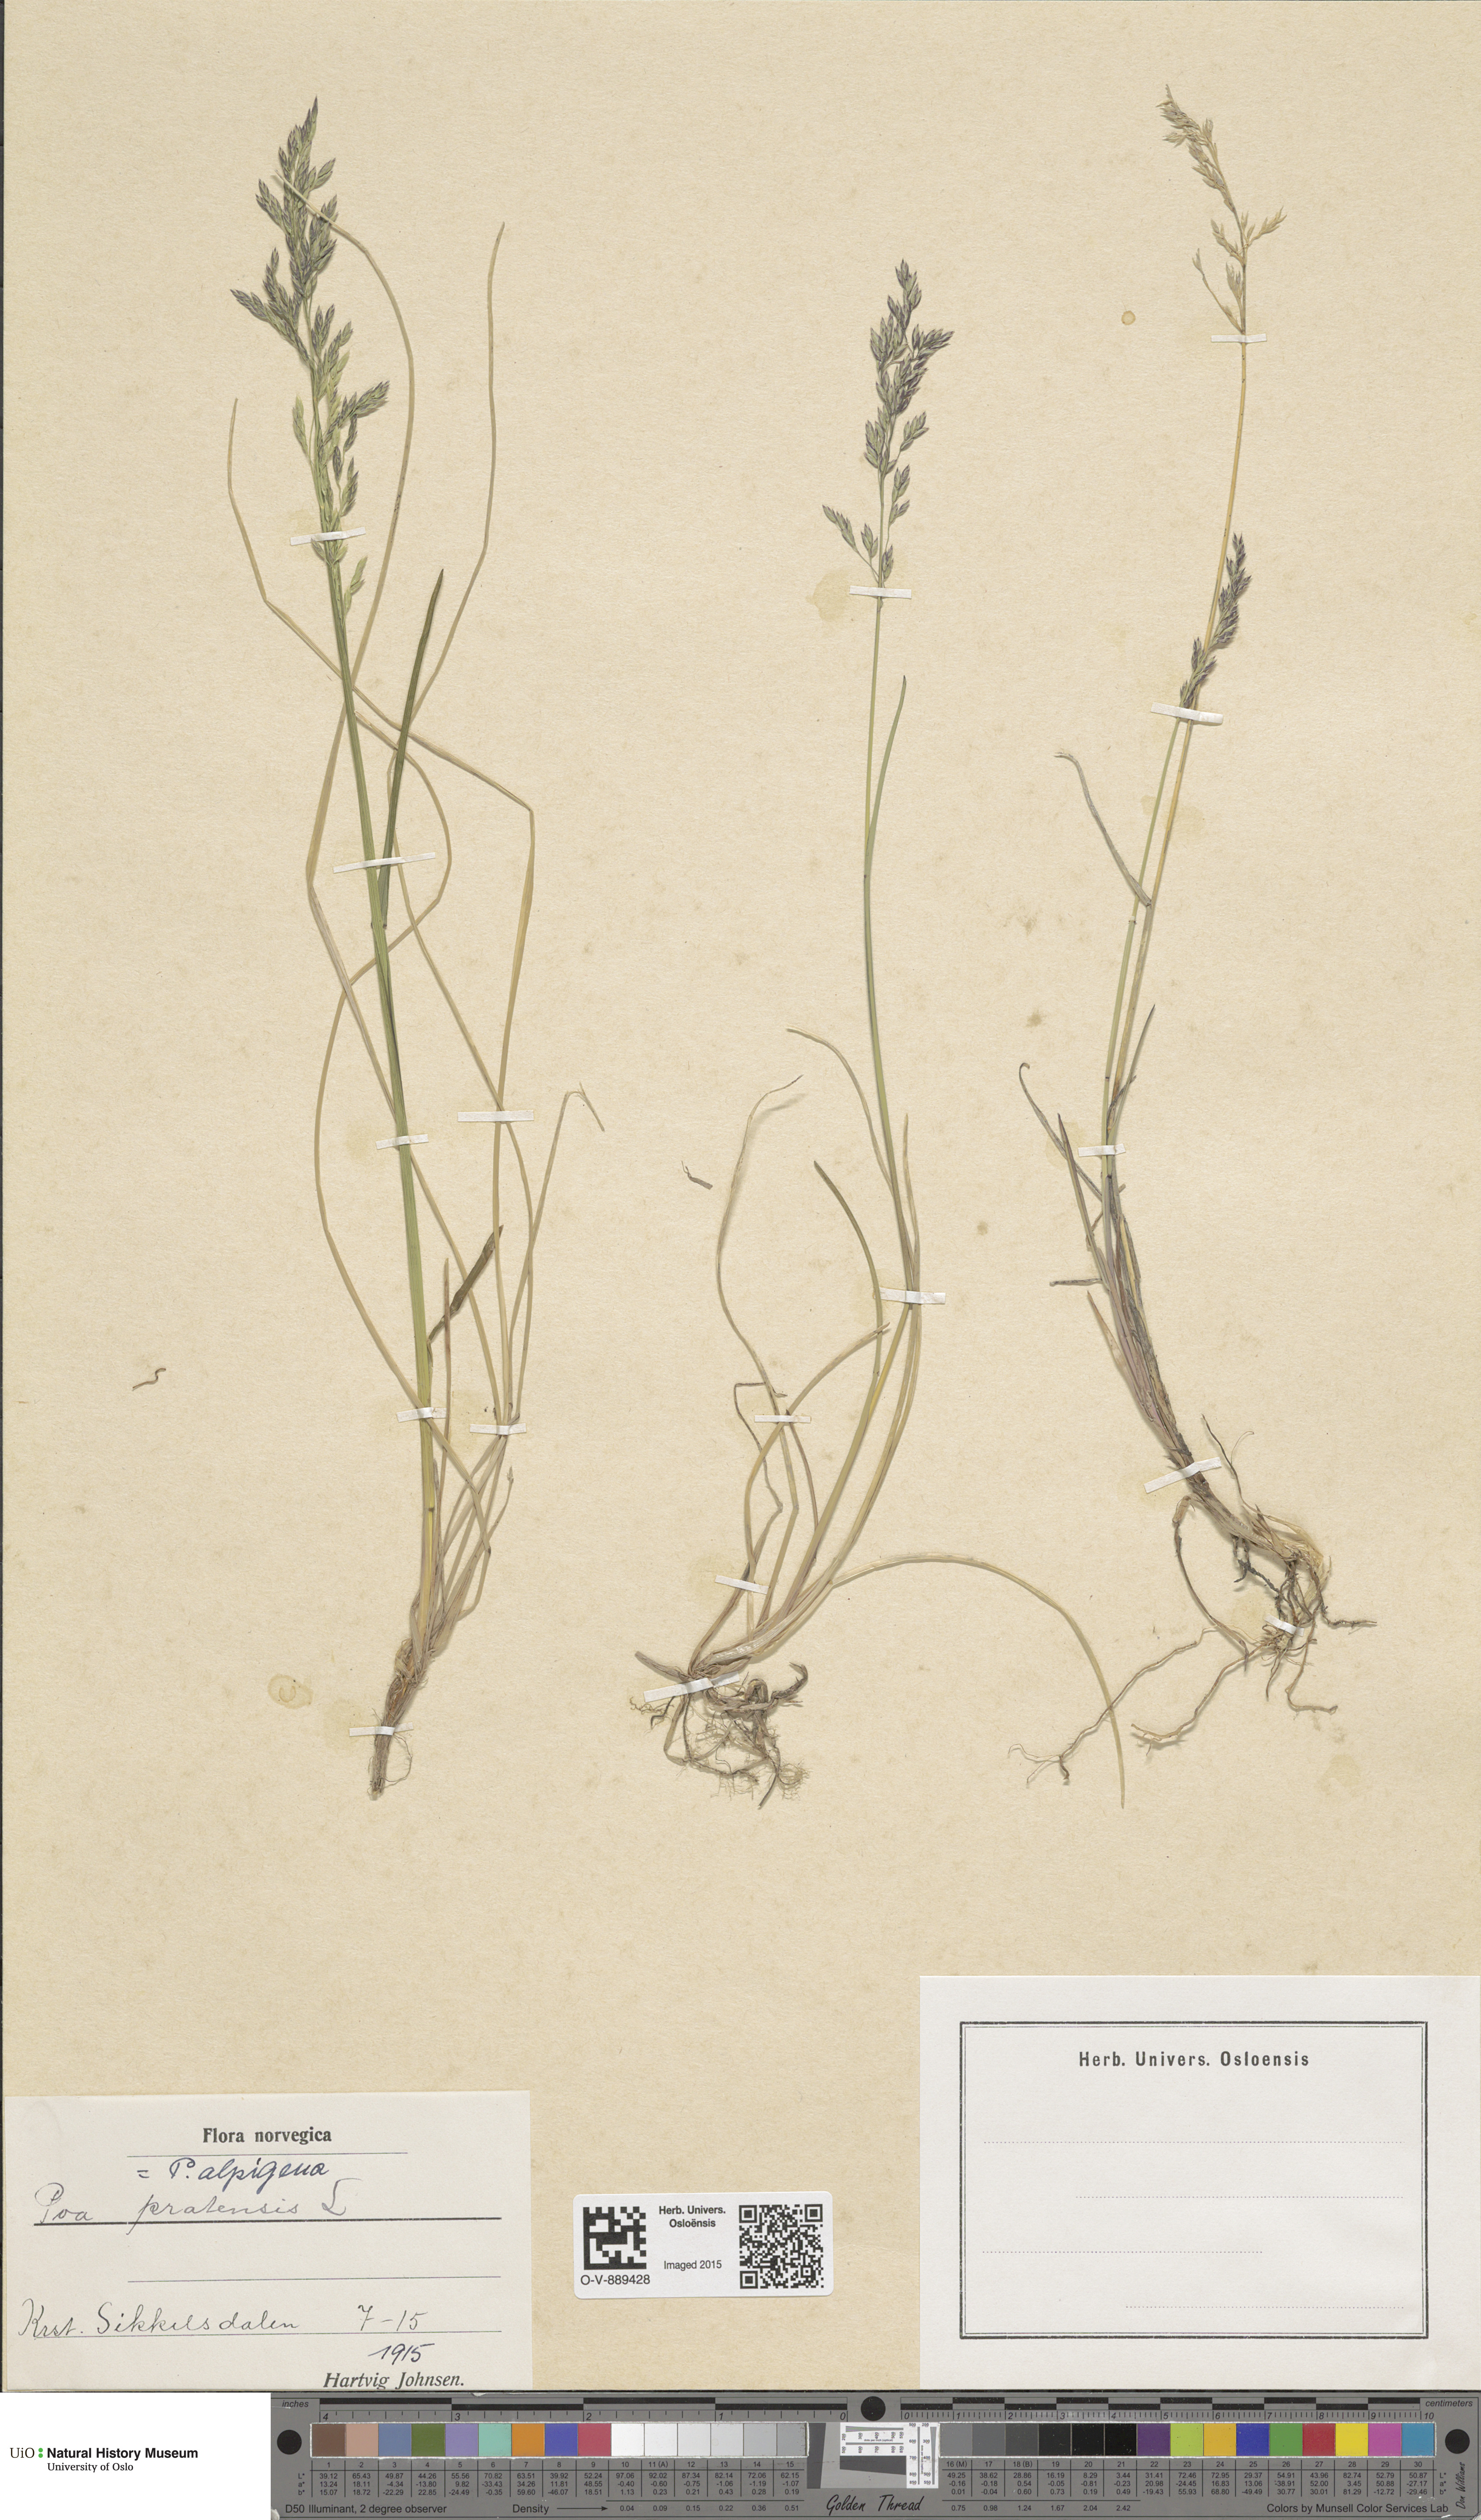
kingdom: Plantae
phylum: Tracheophyta
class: Liliopsida
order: Poales
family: Poaceae
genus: Poa
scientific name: Poa alpigena
